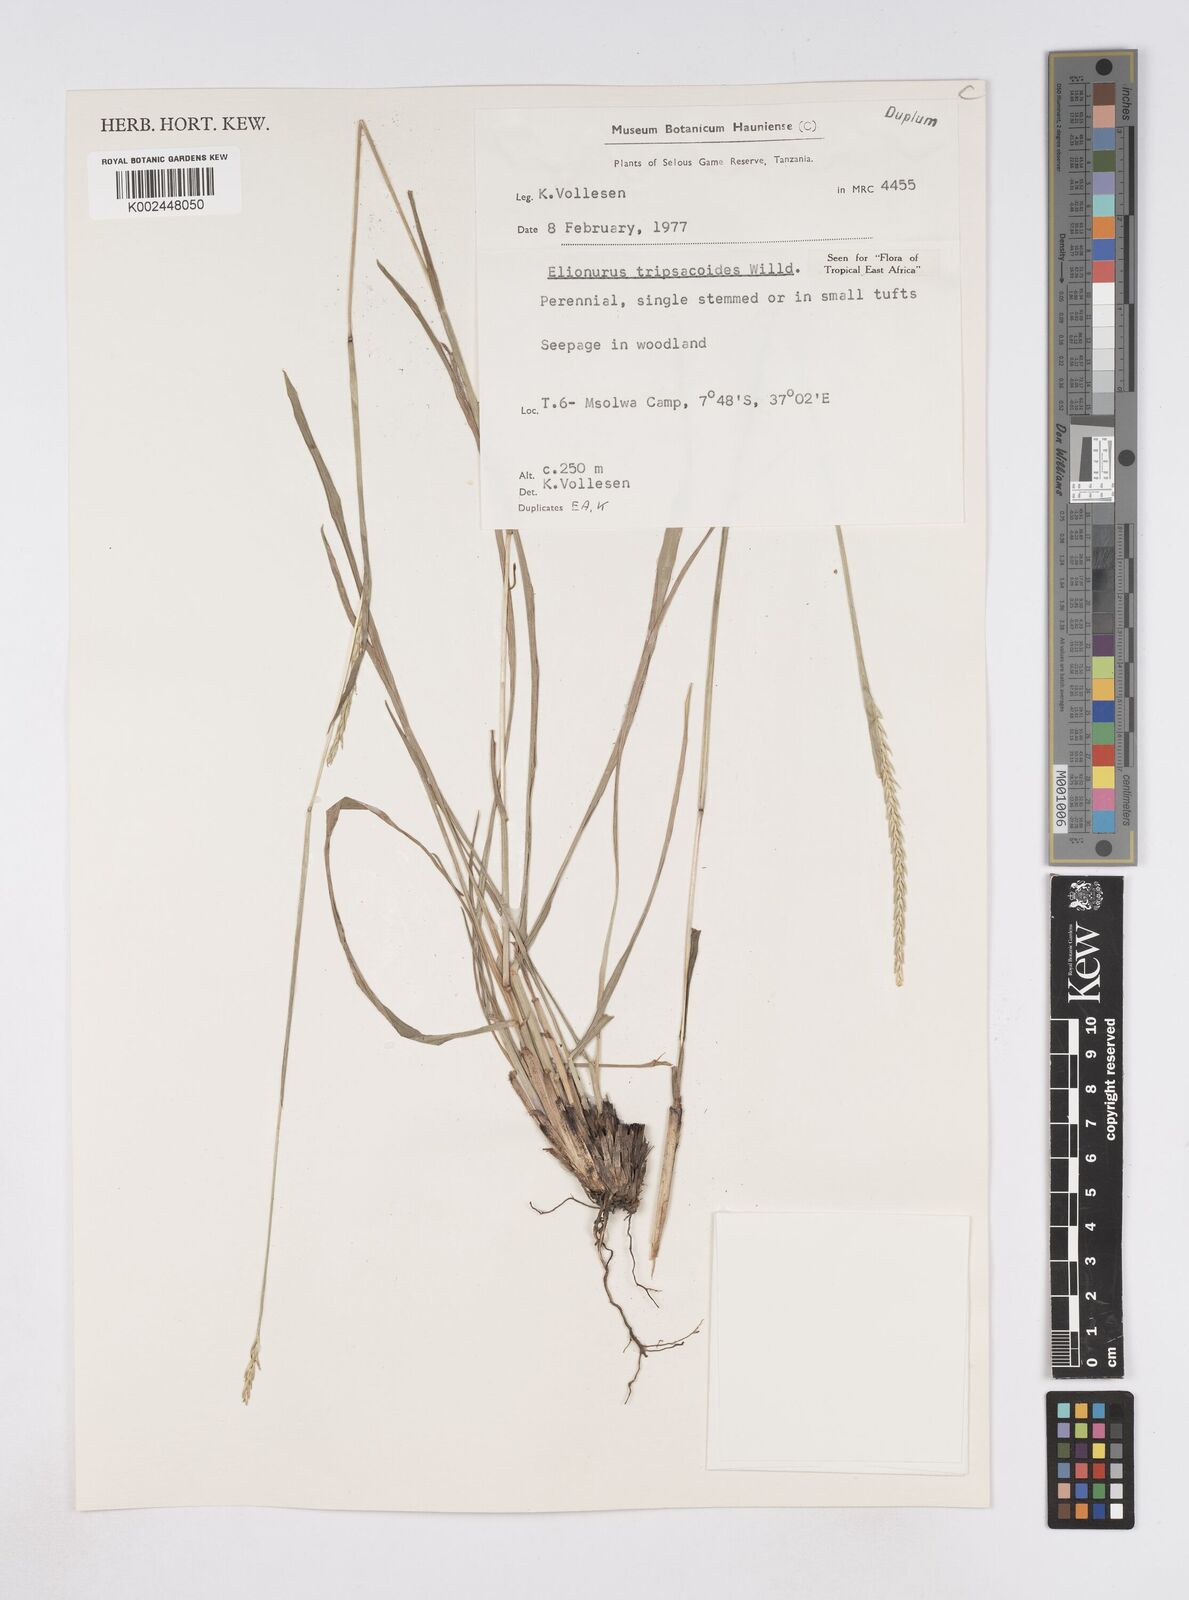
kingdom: Plantae
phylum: Tracheophyta
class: Liliopsida
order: Poales
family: Poaceae
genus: Elionurus
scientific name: Elionurus tripsacoides
